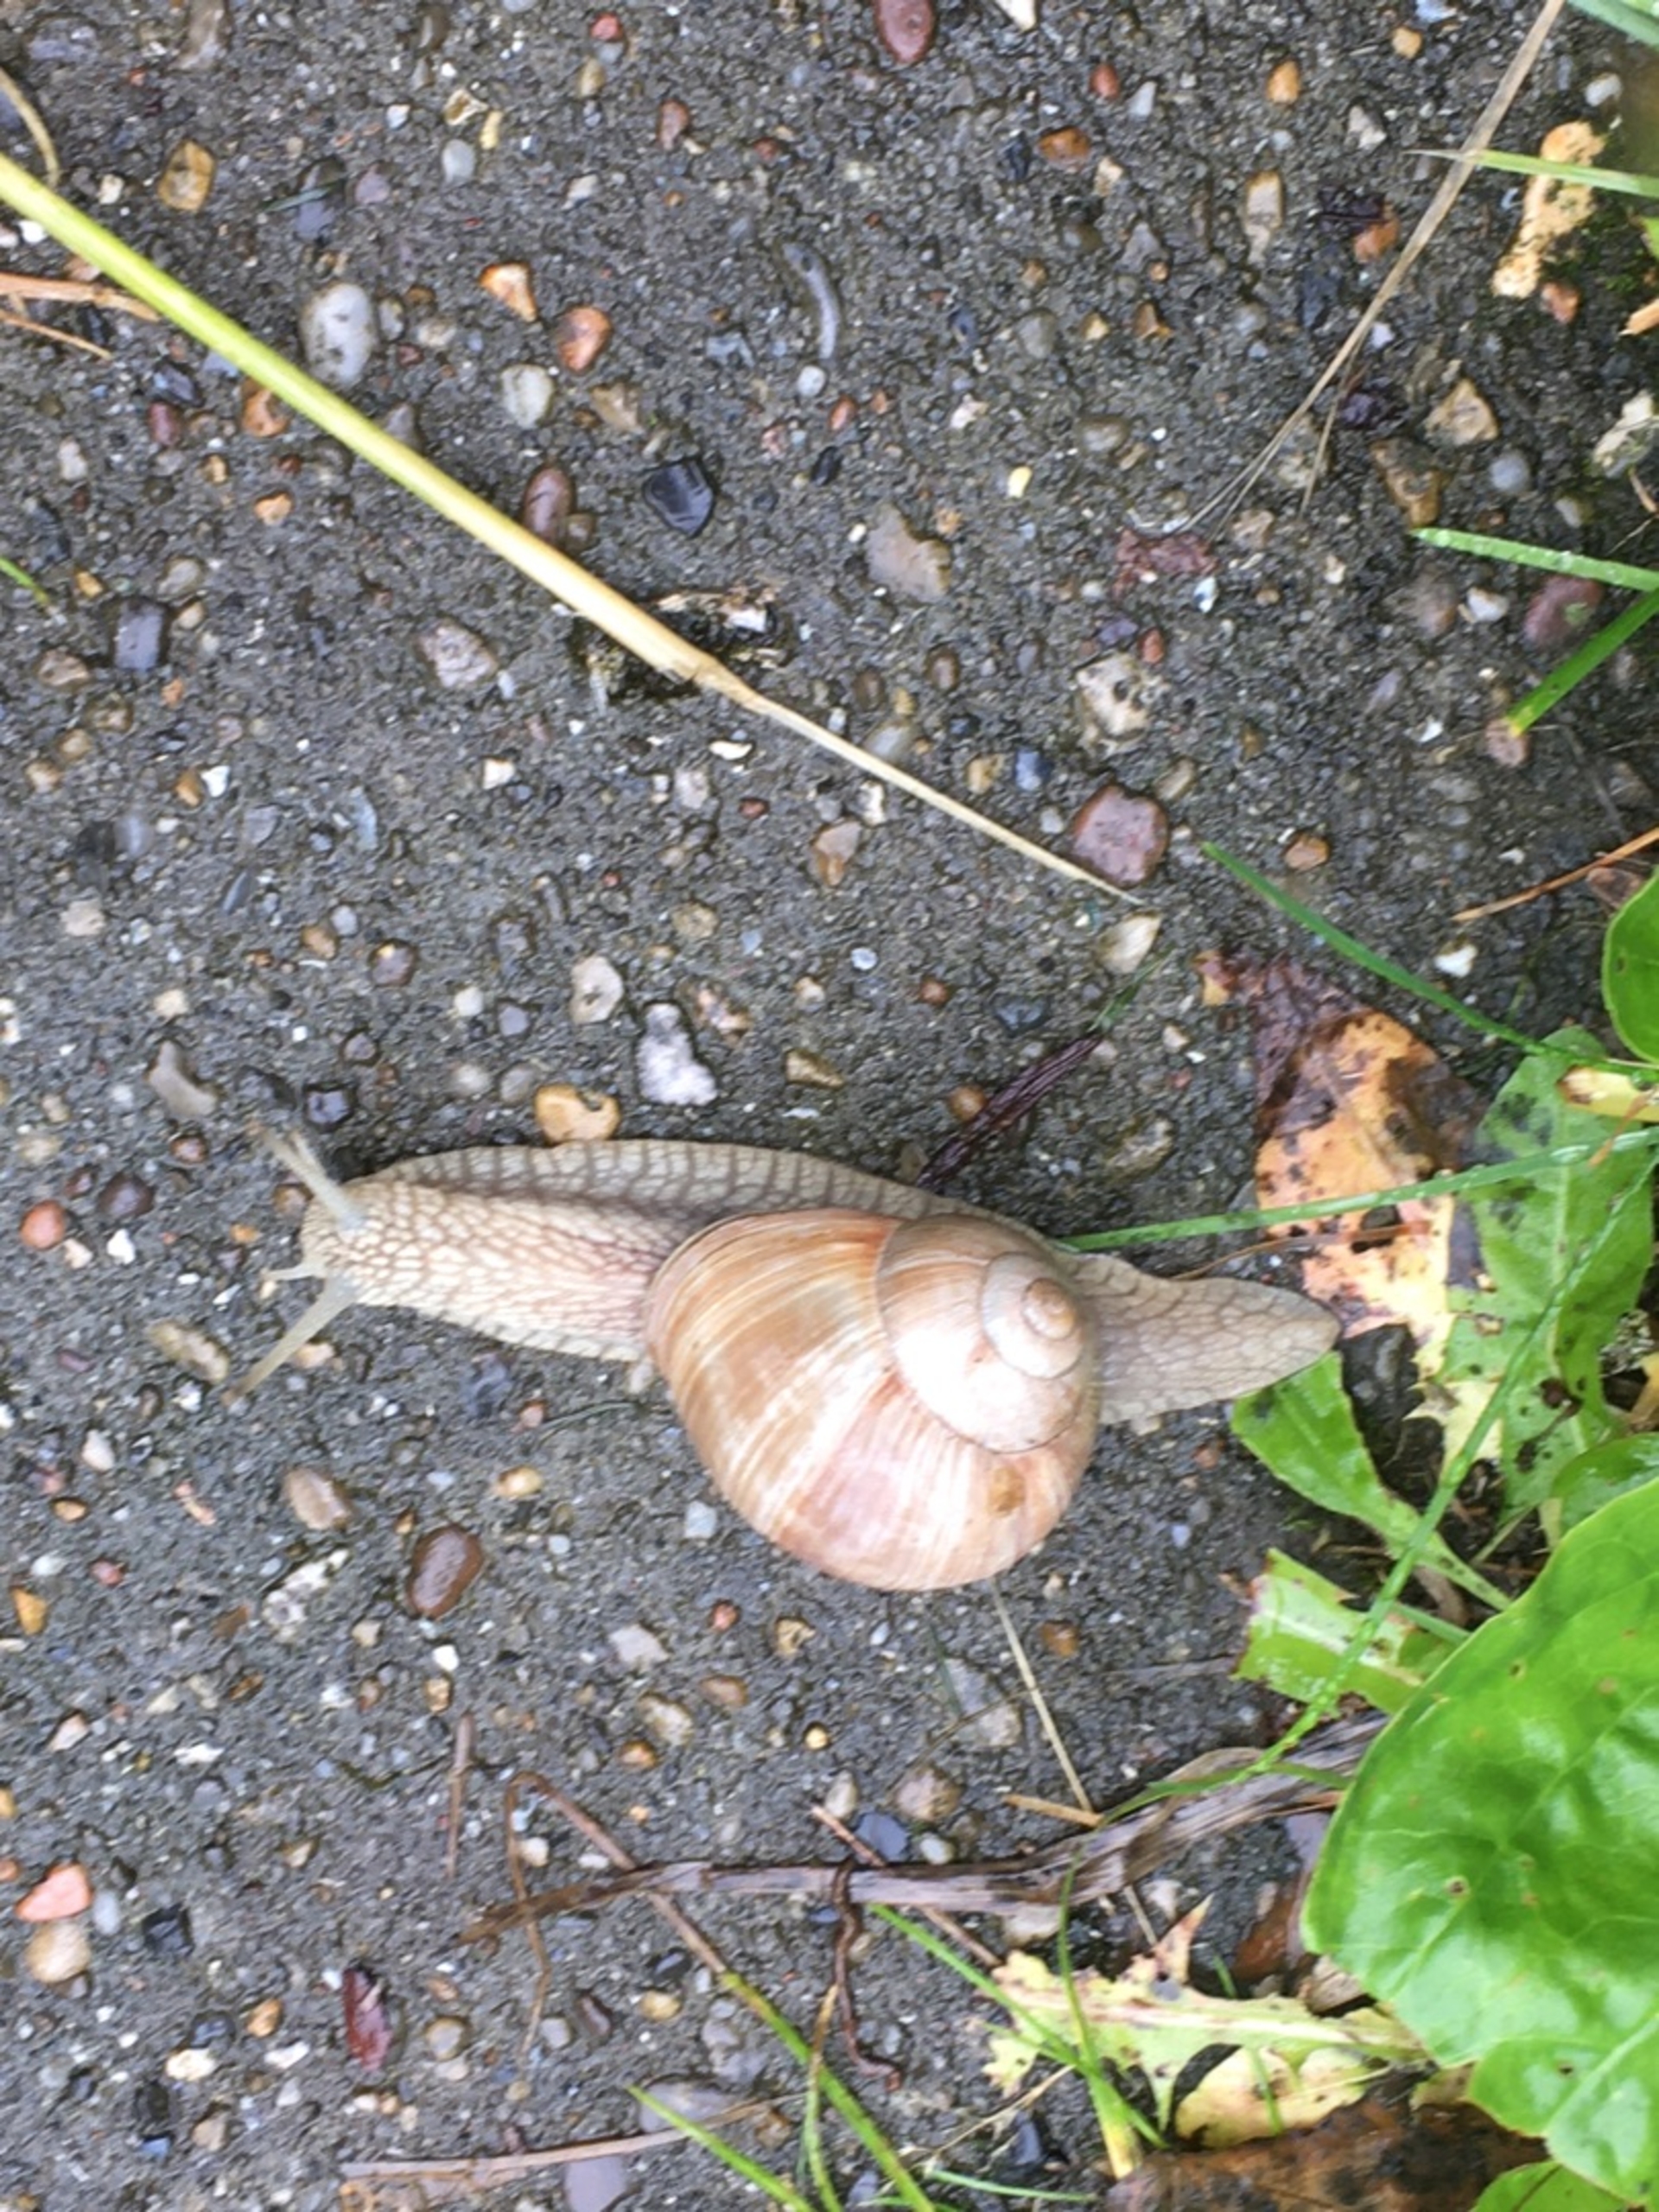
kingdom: Animalia
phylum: Mollusca
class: Gastropoda
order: Stylommatophora
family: Helicidae
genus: Helix
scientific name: Helix pomatia
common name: Vinbjergsnegl
